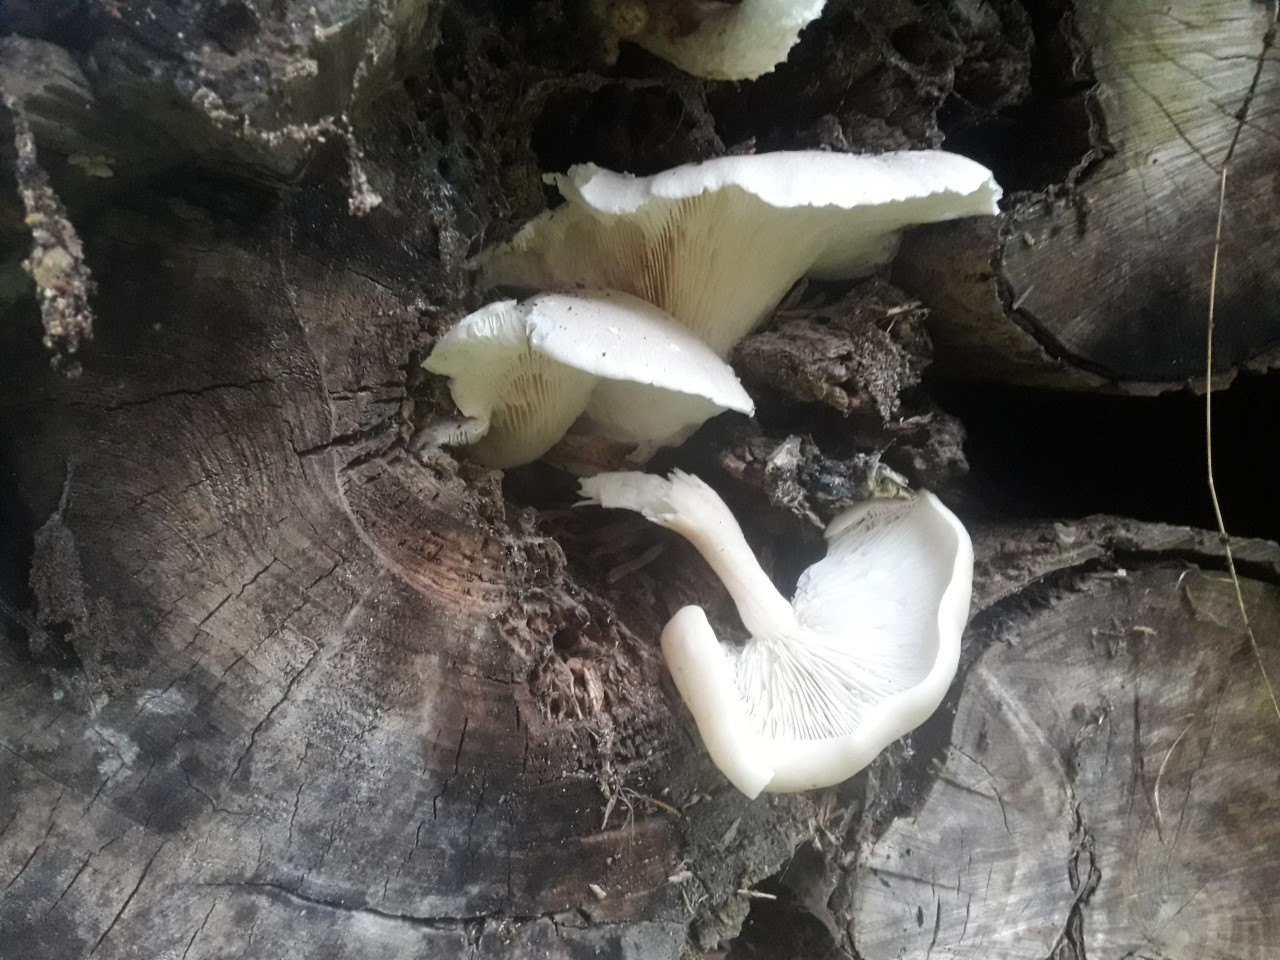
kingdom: Fungi
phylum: Basidiomycota
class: Agaricomycetes
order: Agaricales
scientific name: Agaricales
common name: champignonordenen
